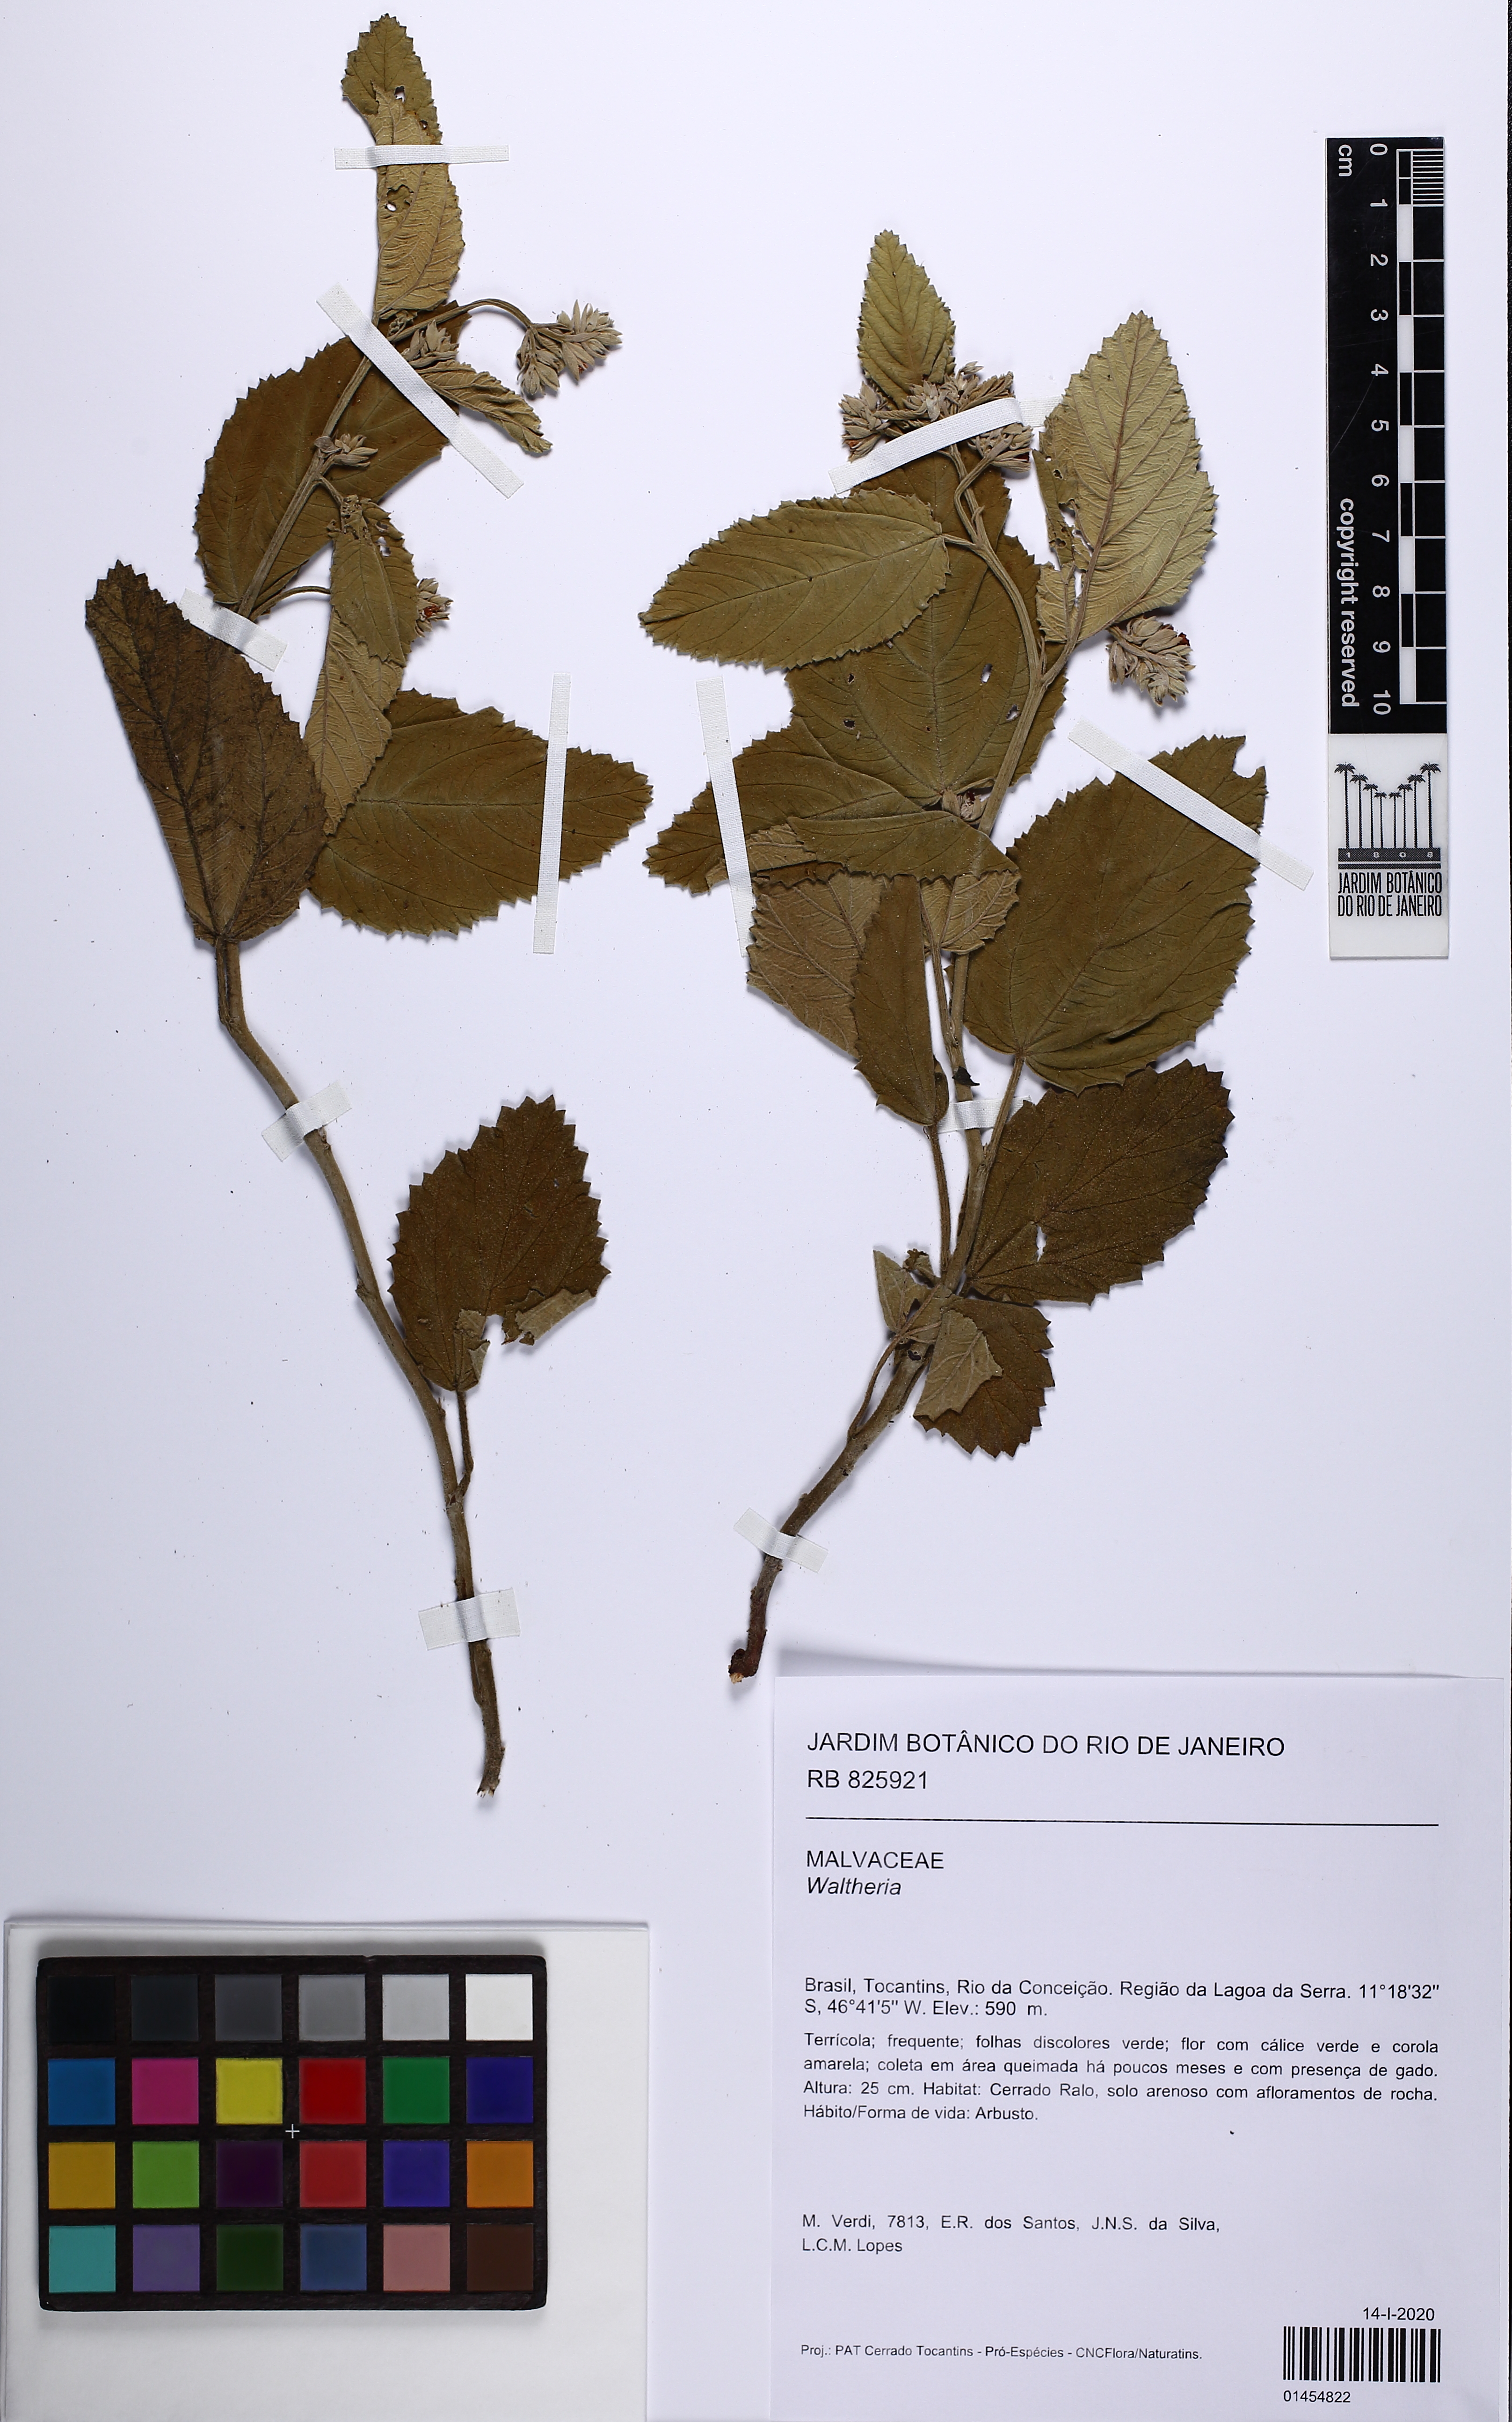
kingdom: Plantae
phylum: Tracheophyta
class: Magnoliopsida
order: Malvales
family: Malvaceae
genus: Waltheria
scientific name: Waltheria
